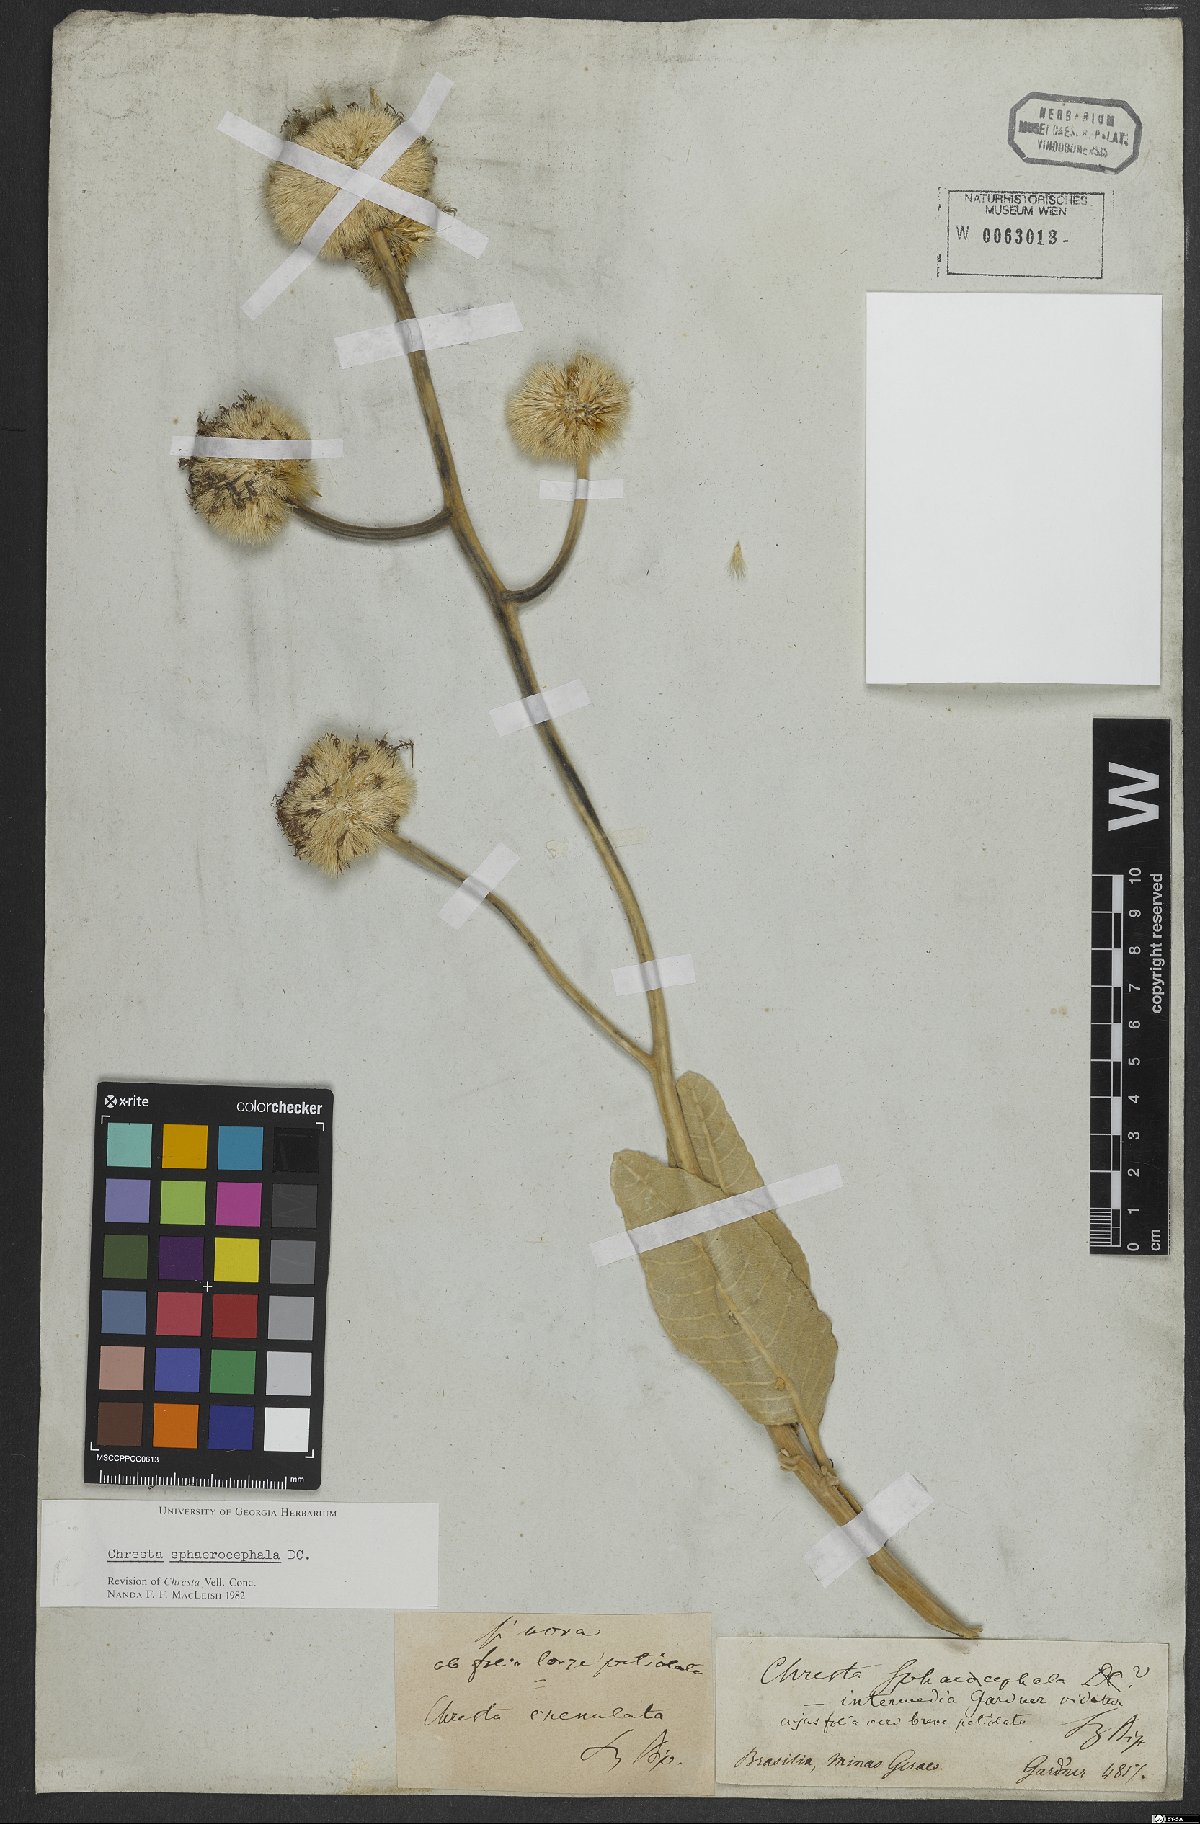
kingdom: Plantae
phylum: Tracheophyta
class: Magnoliopsida
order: Asterales
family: Asteraceae
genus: Chresta
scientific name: Chresta sphaerocephala
